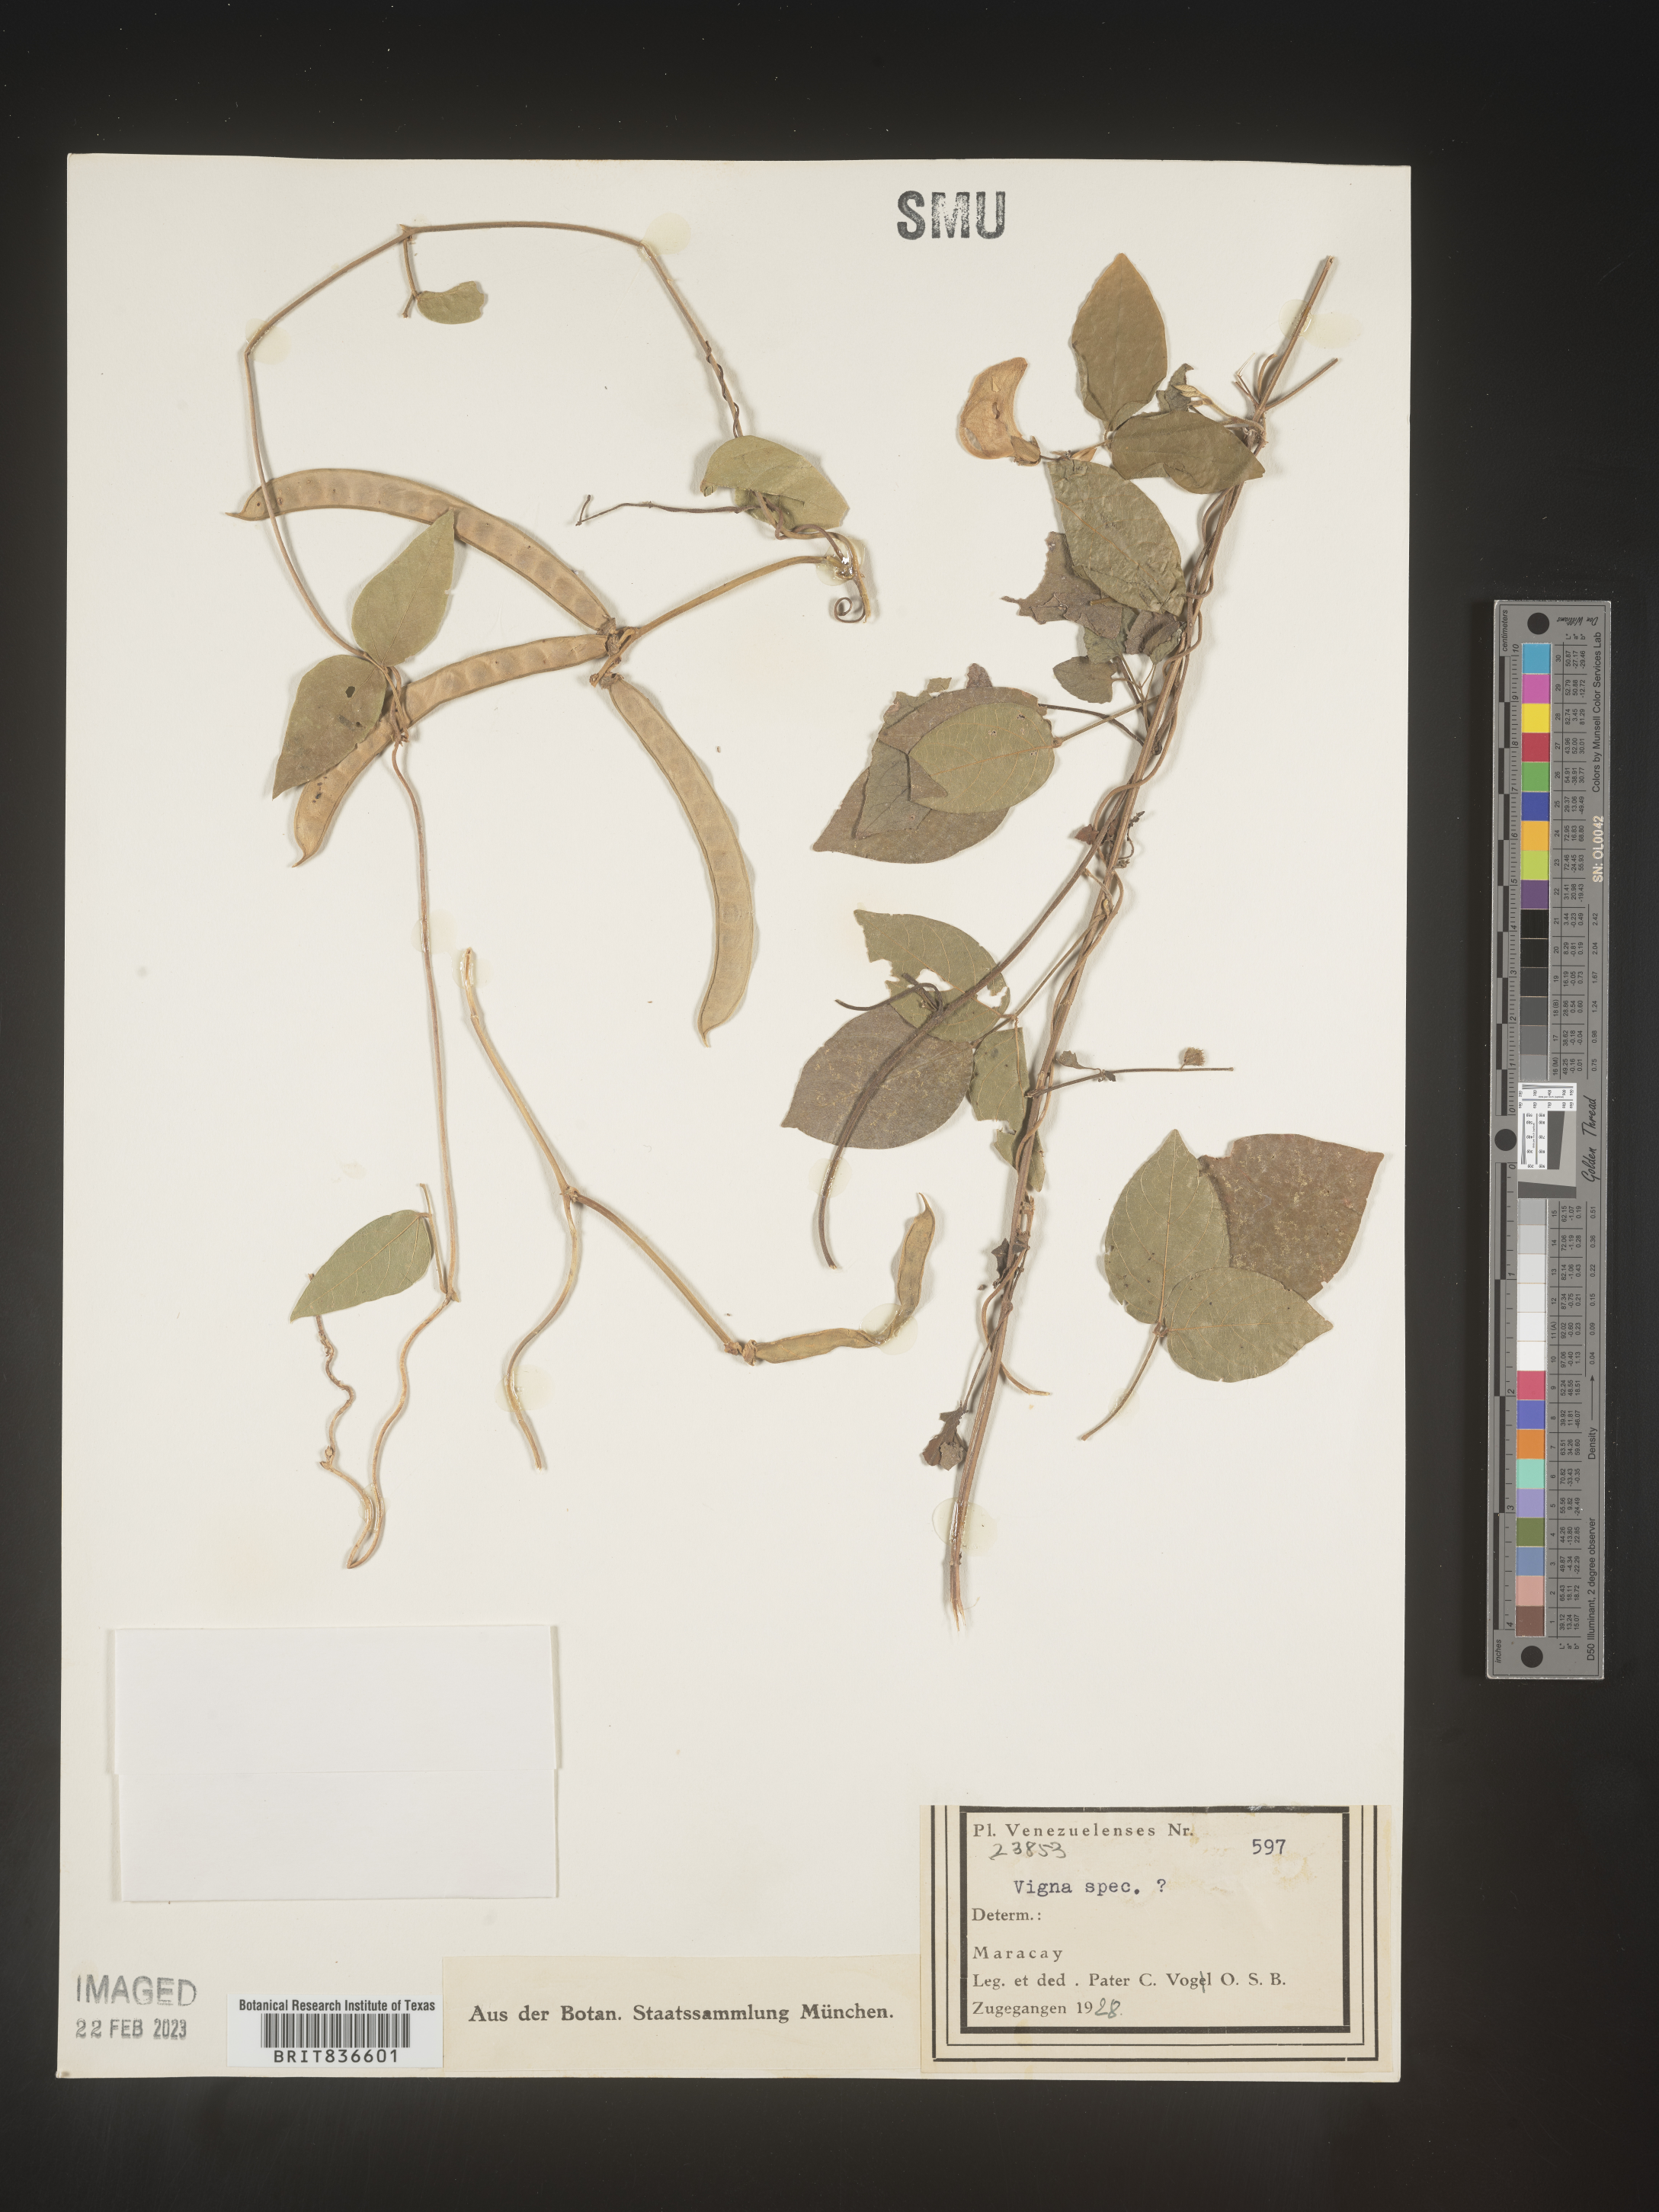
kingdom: Plantae
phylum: Tracheophyta
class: Magnoliopsida
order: Fabales
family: Fabaceae
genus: Vigna
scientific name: Vigna
